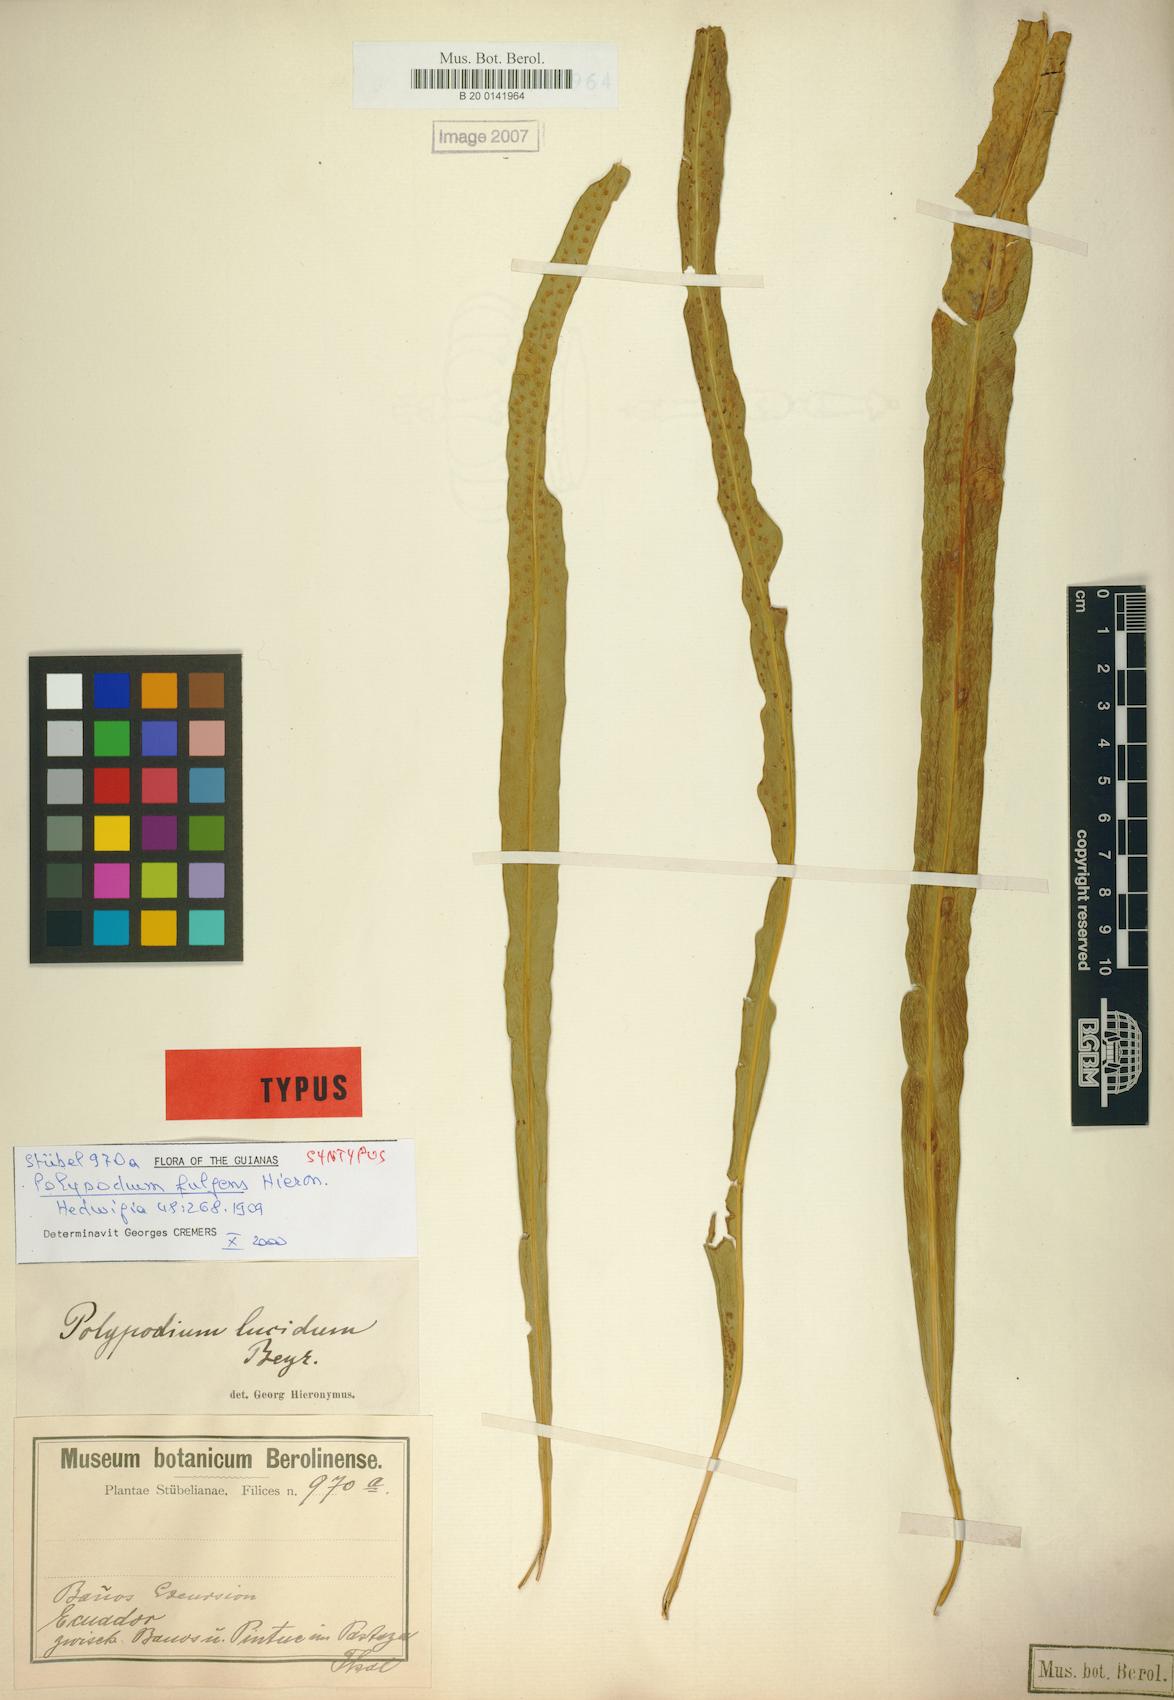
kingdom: Plantae
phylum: Tracheophyta
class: Polypodiopsida
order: Polypodiales
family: Polypodiaceae
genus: Campyloneurum
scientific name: Campyloneurum rigidum
